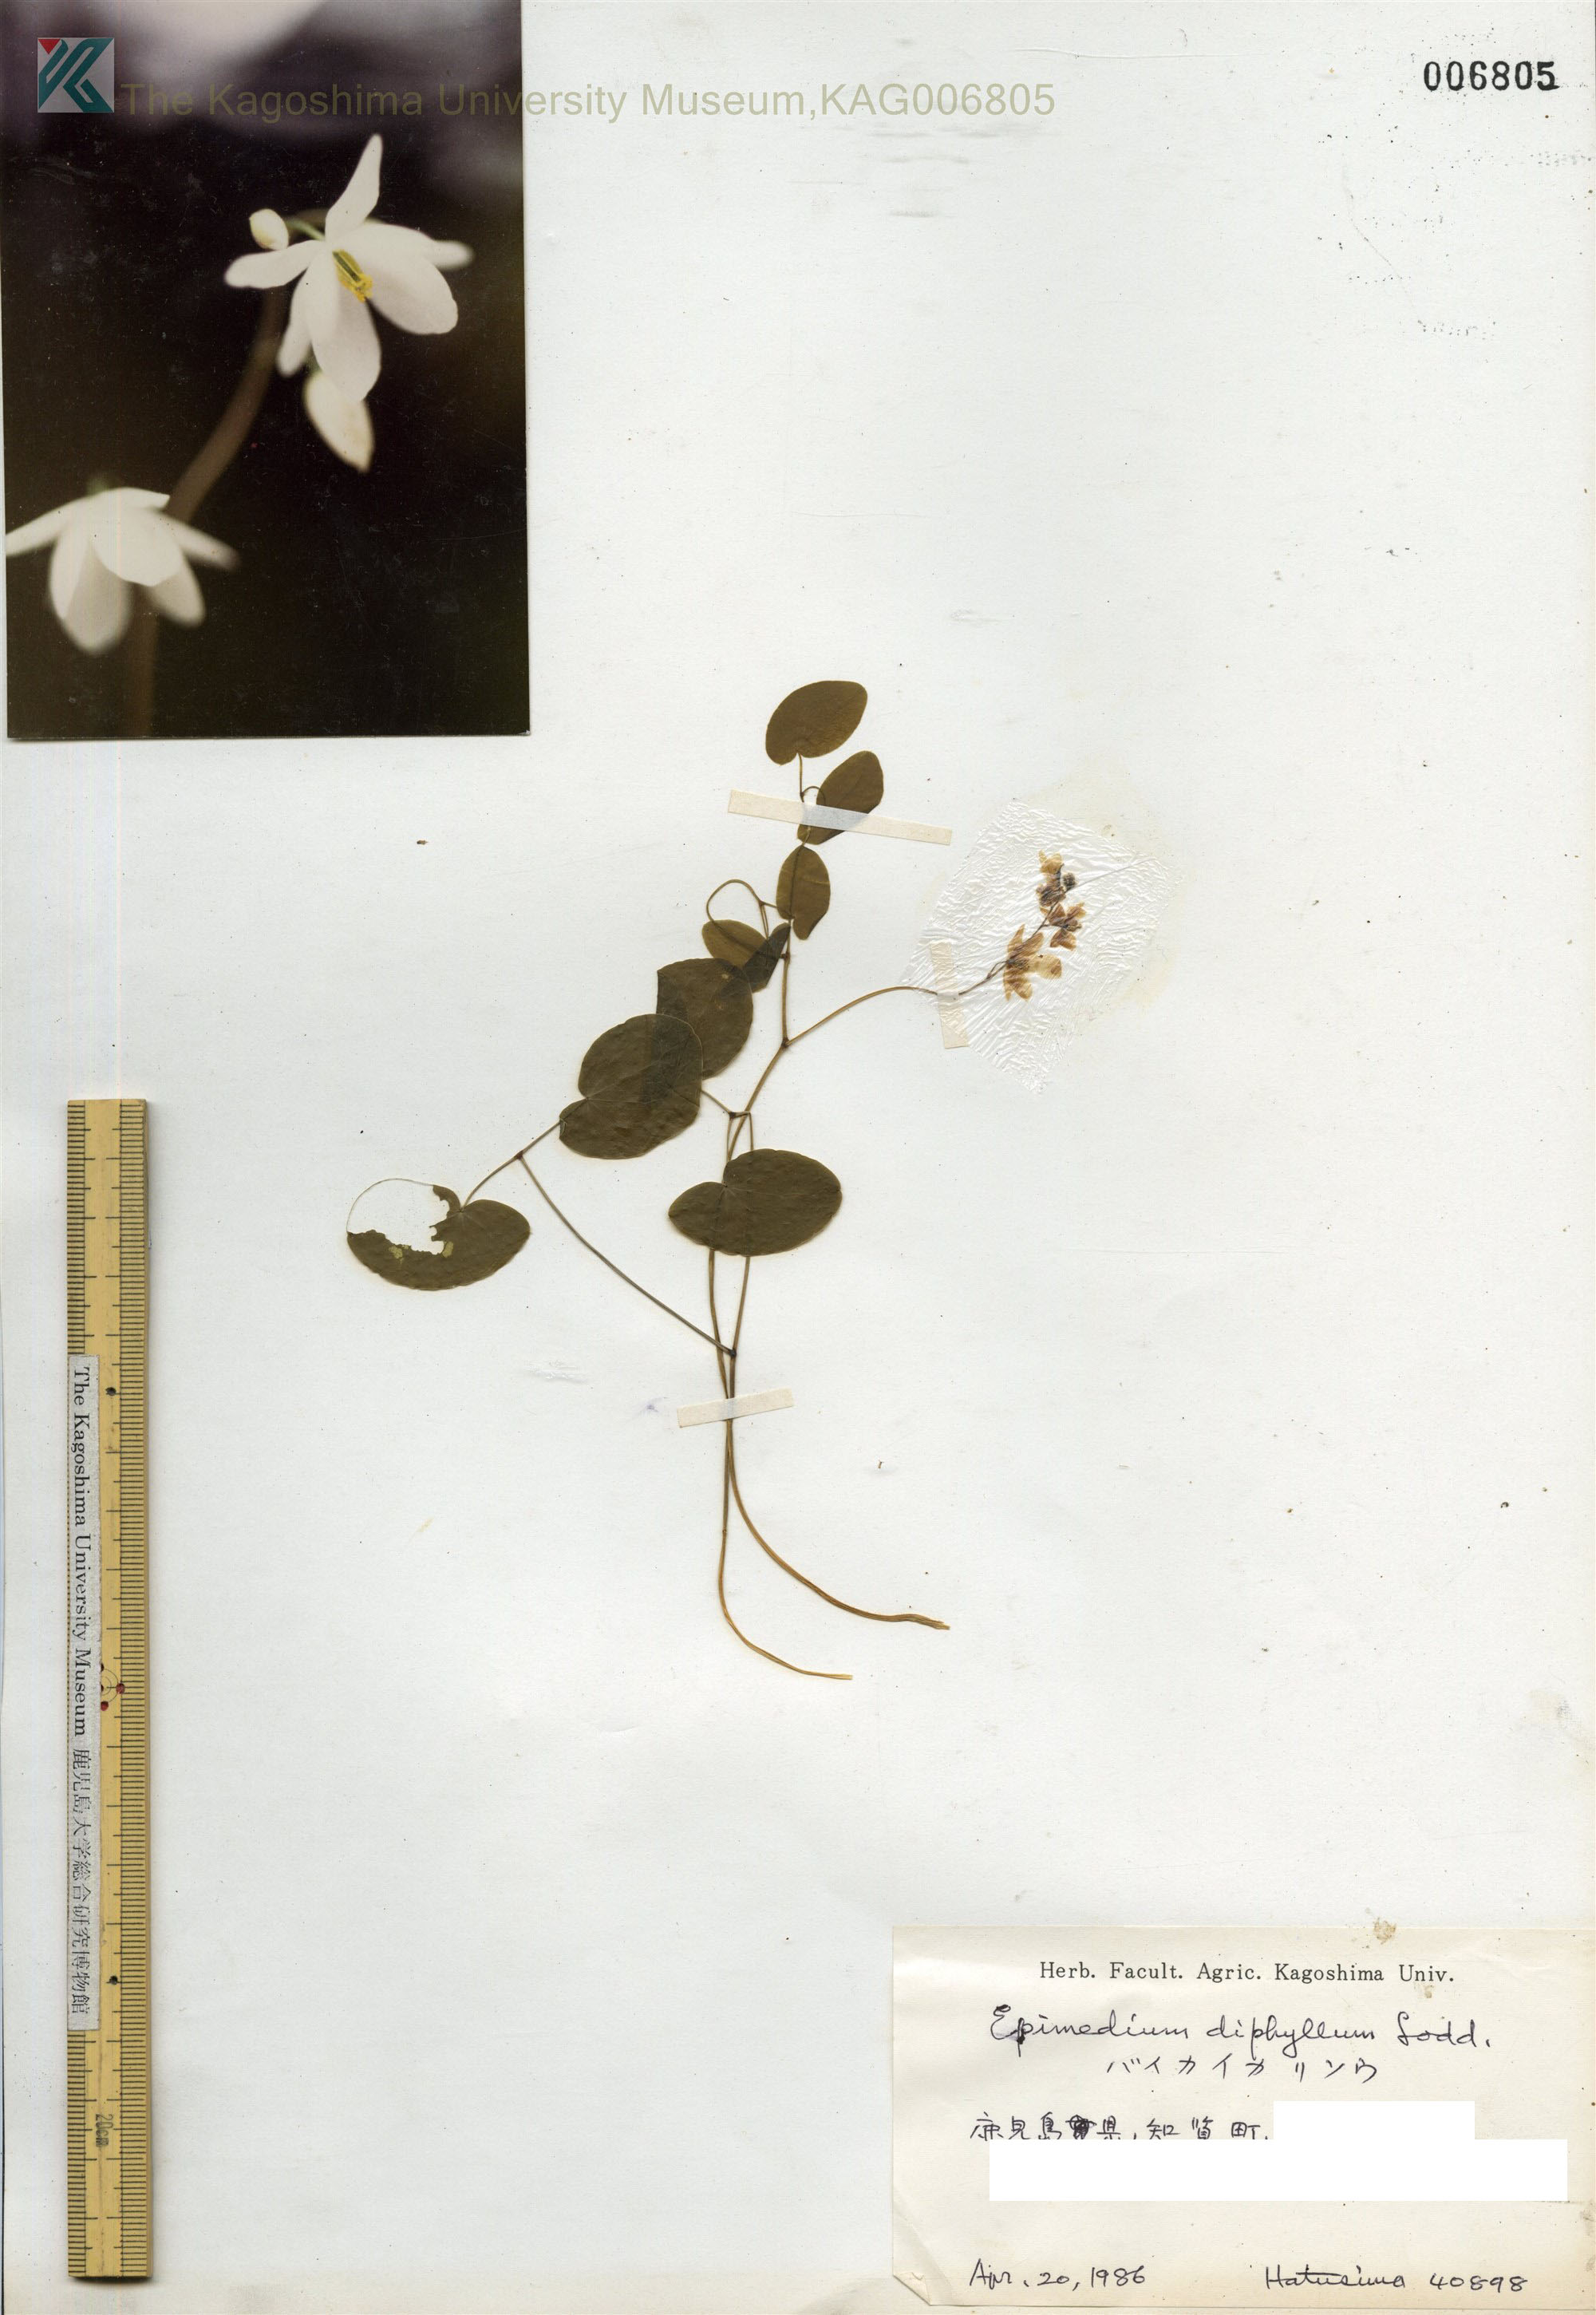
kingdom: Plantae
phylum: Tracheophyta
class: Magnoliopsida
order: Ranunculales
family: Berberidaceae
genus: Epimedium
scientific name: Epimedium diphyllum
